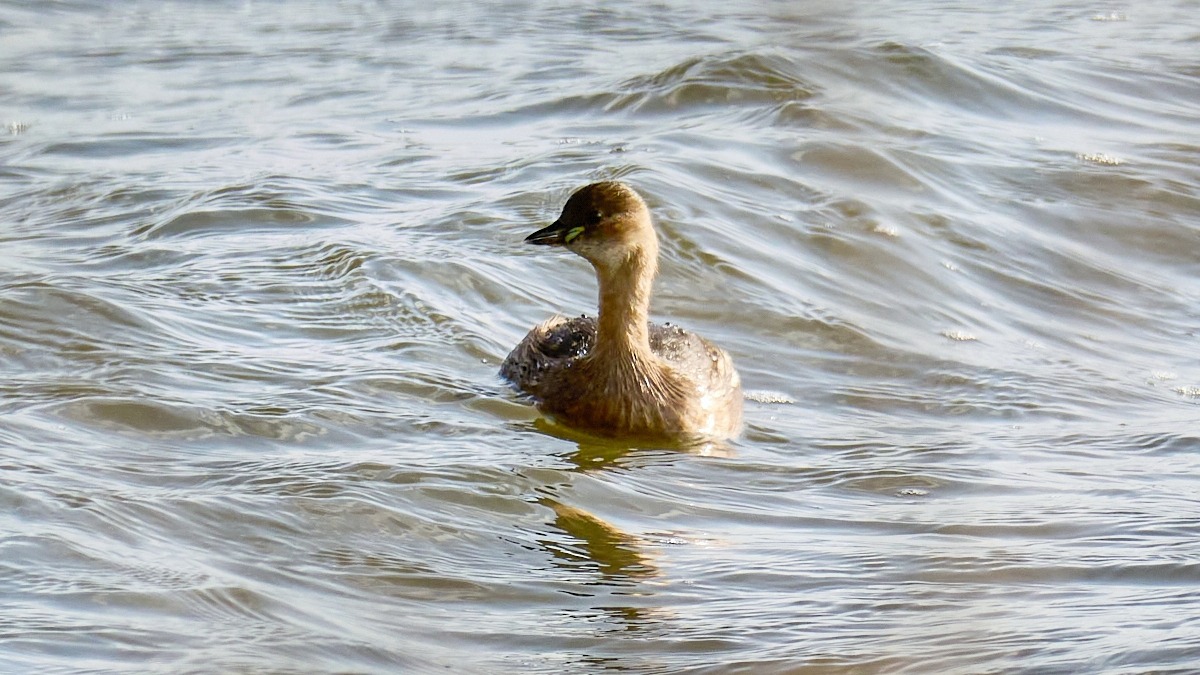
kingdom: Animalia
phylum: Chordata
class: Aves
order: Podicipediformes
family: Podicipedidae
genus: Tachybaptus
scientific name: Tachybaptus ruficollis
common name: Lille lappedykker
